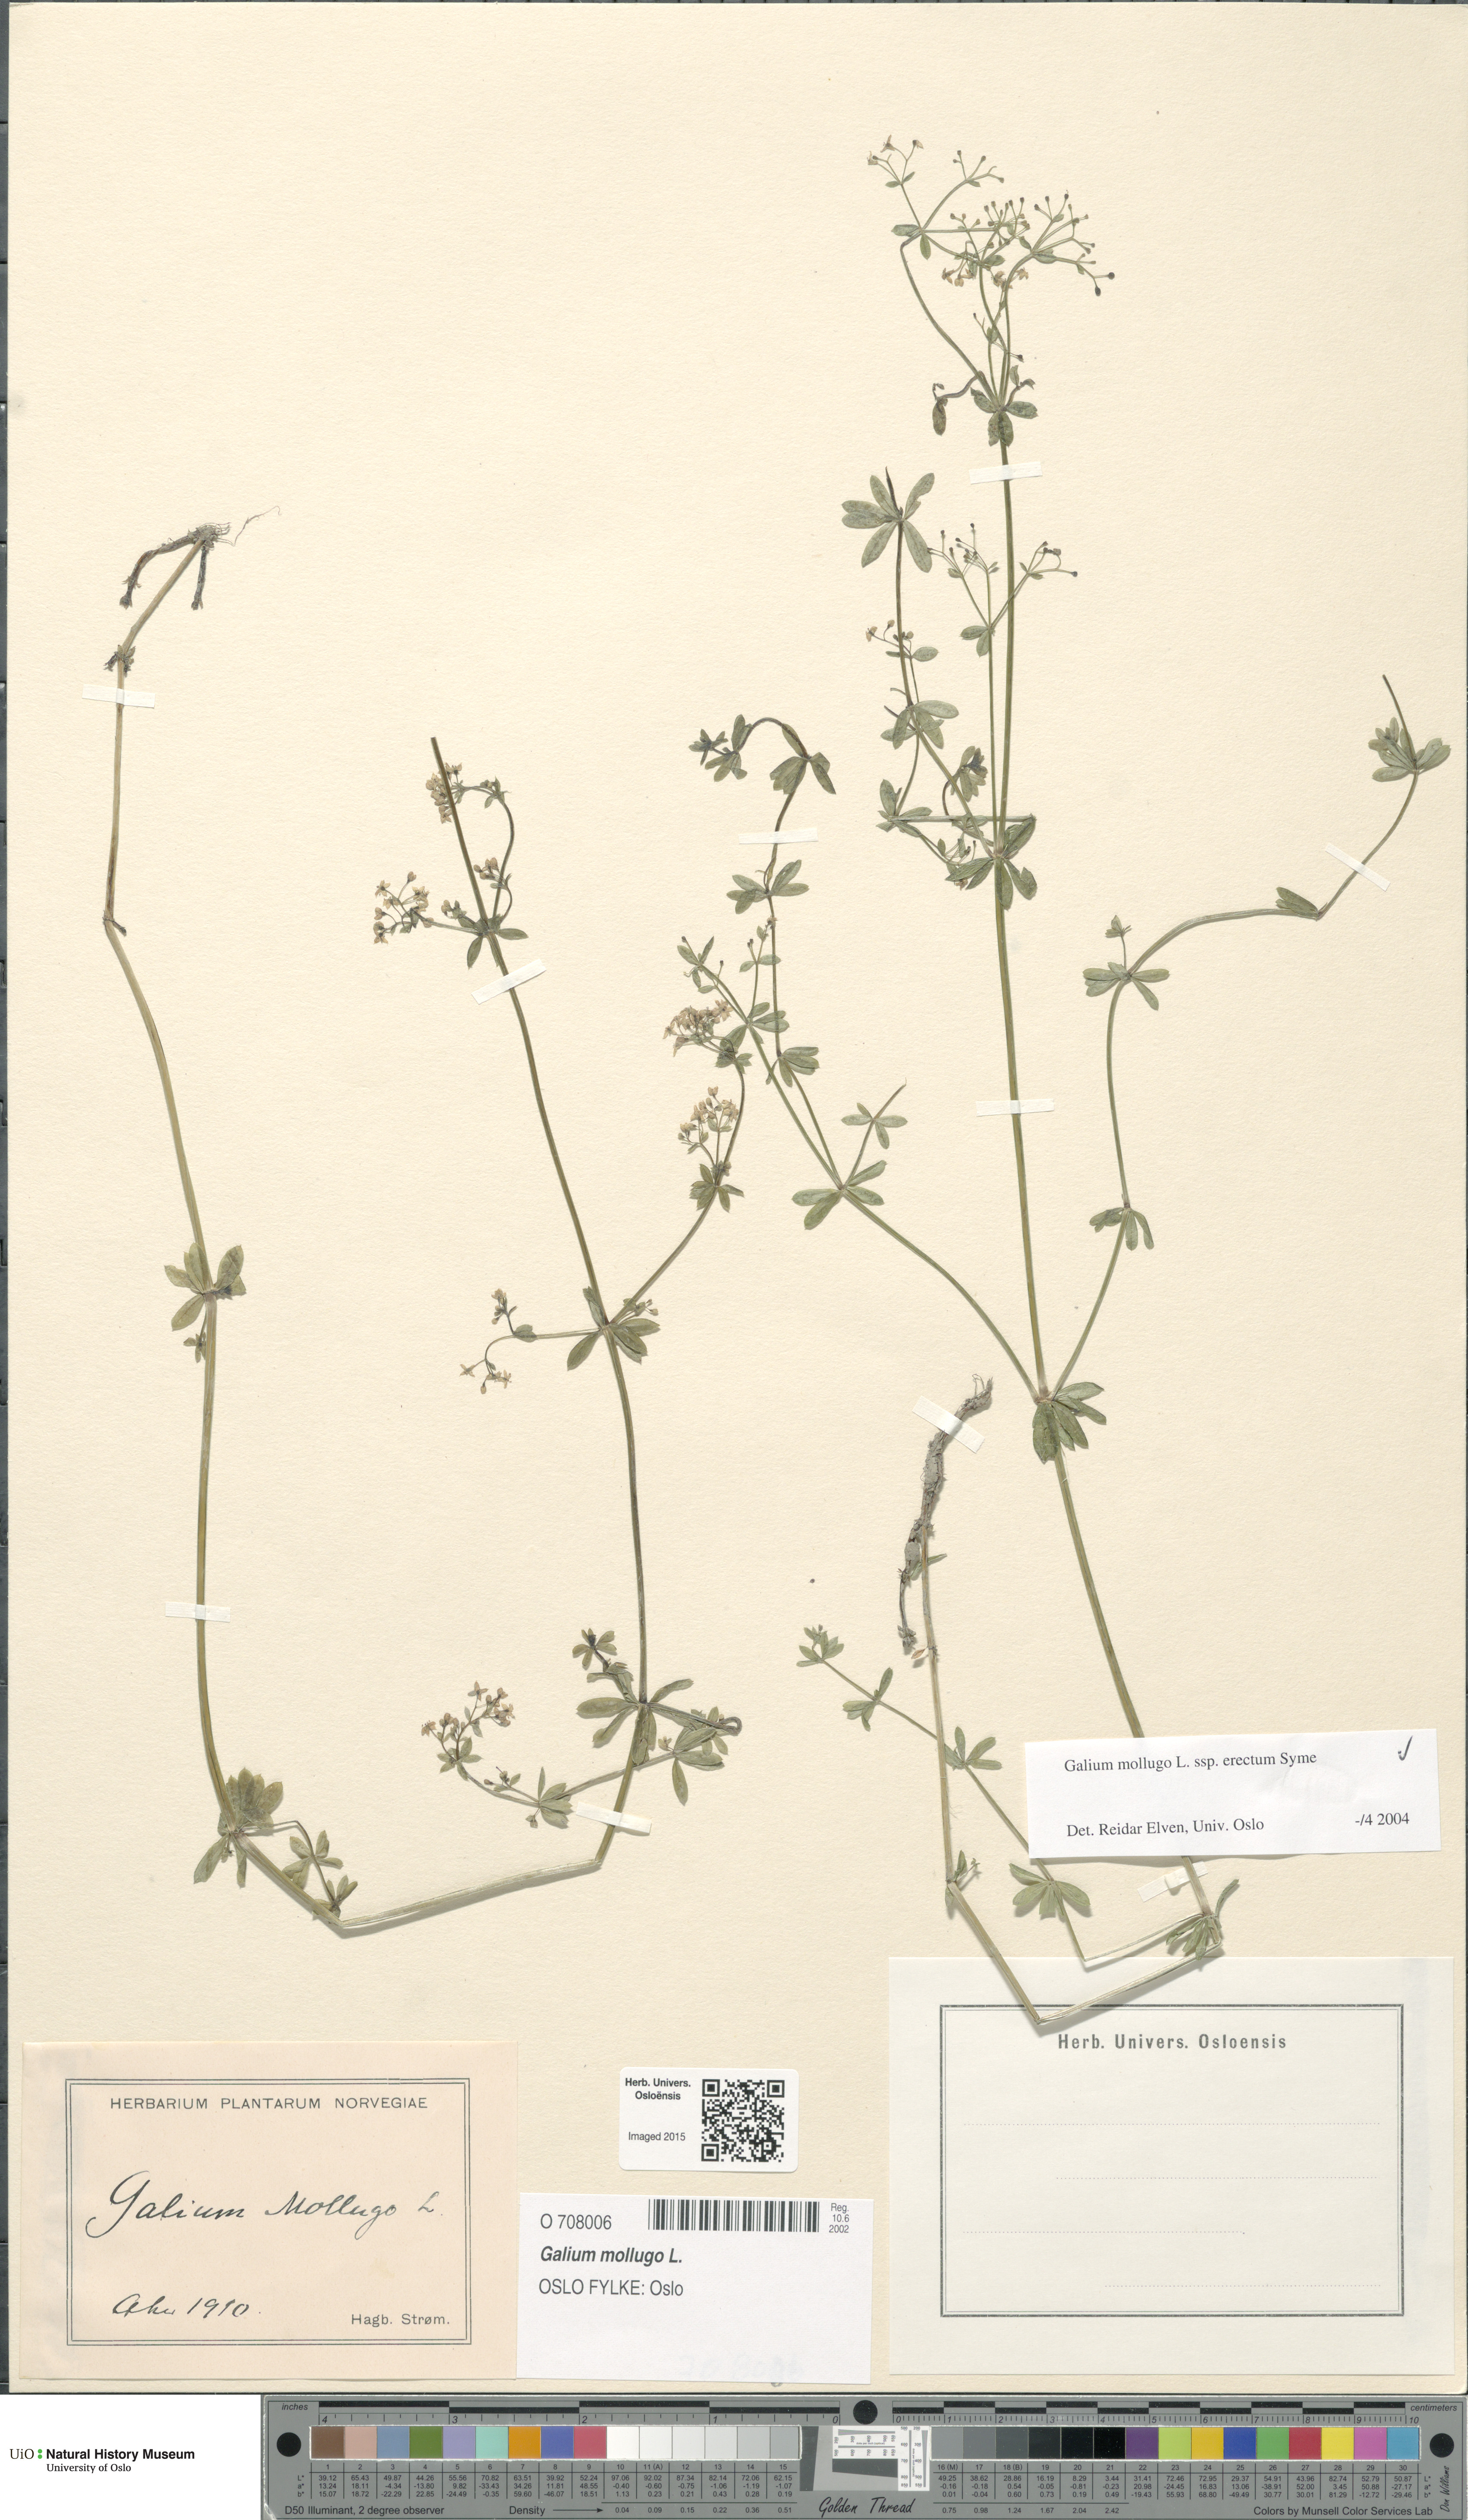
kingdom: Plantae
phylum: Tracheophyta
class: Magnoliopsida
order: Gentianales
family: Rubiaceae
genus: Galium
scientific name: Galium album
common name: White bedstraw
